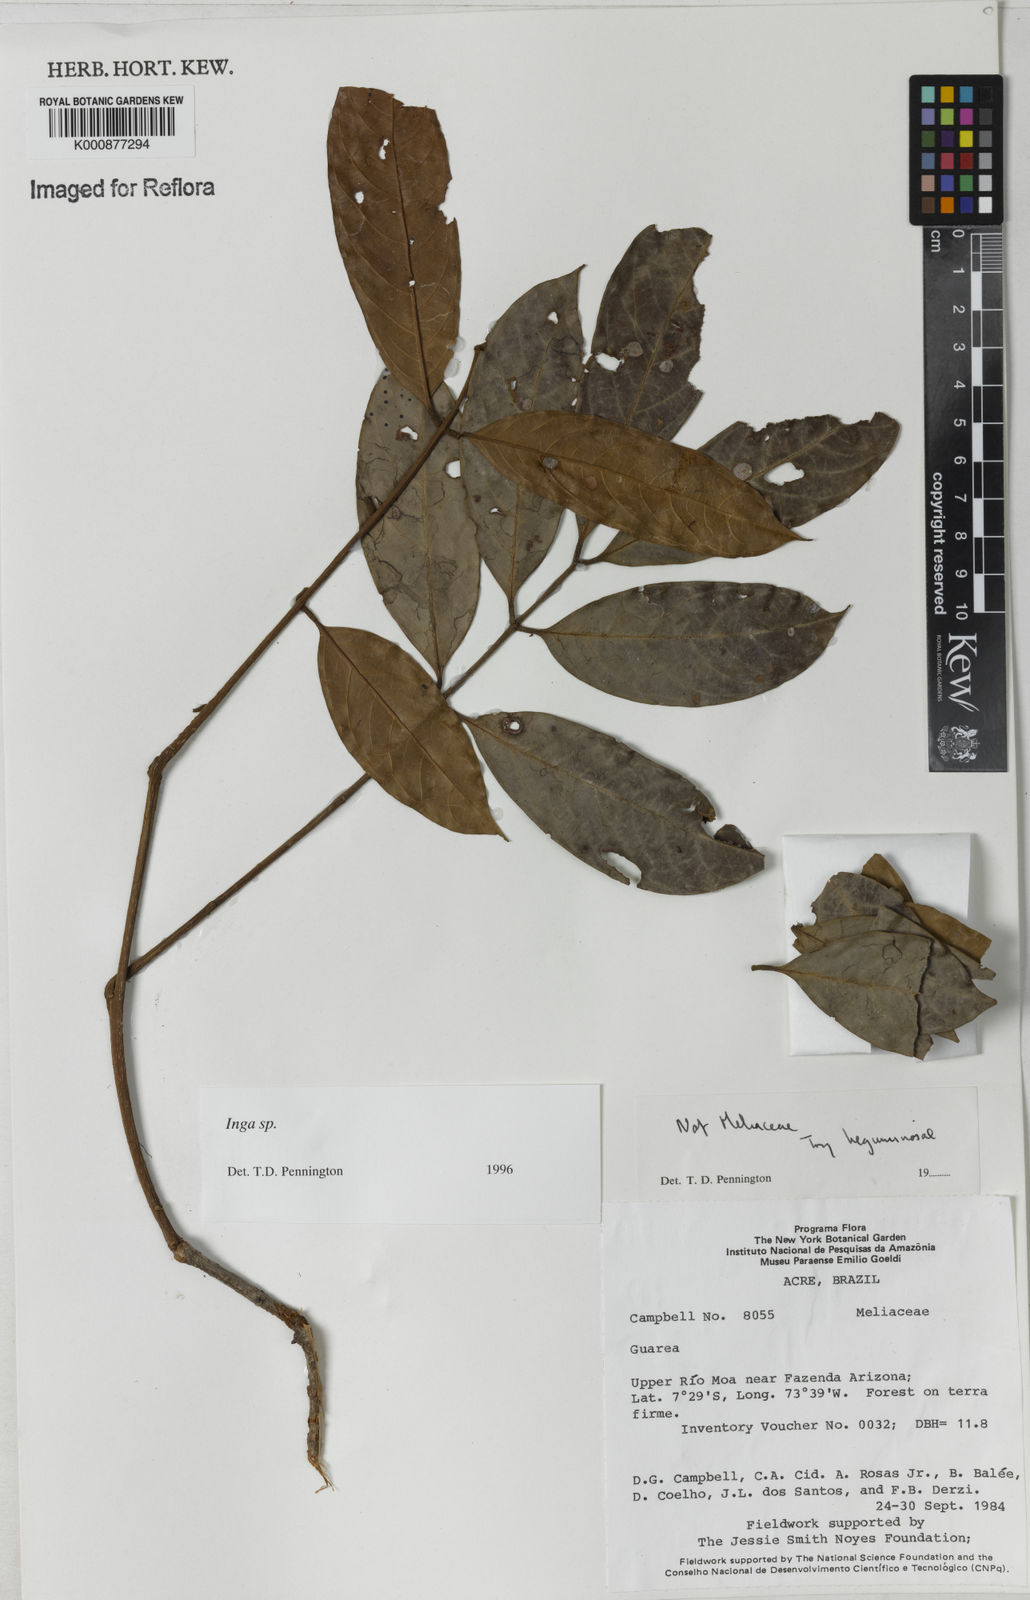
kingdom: Plantae
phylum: Tracheophyta
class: Magnoliopsida
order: Fabales
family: Fabaceae
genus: Inga
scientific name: Inga
